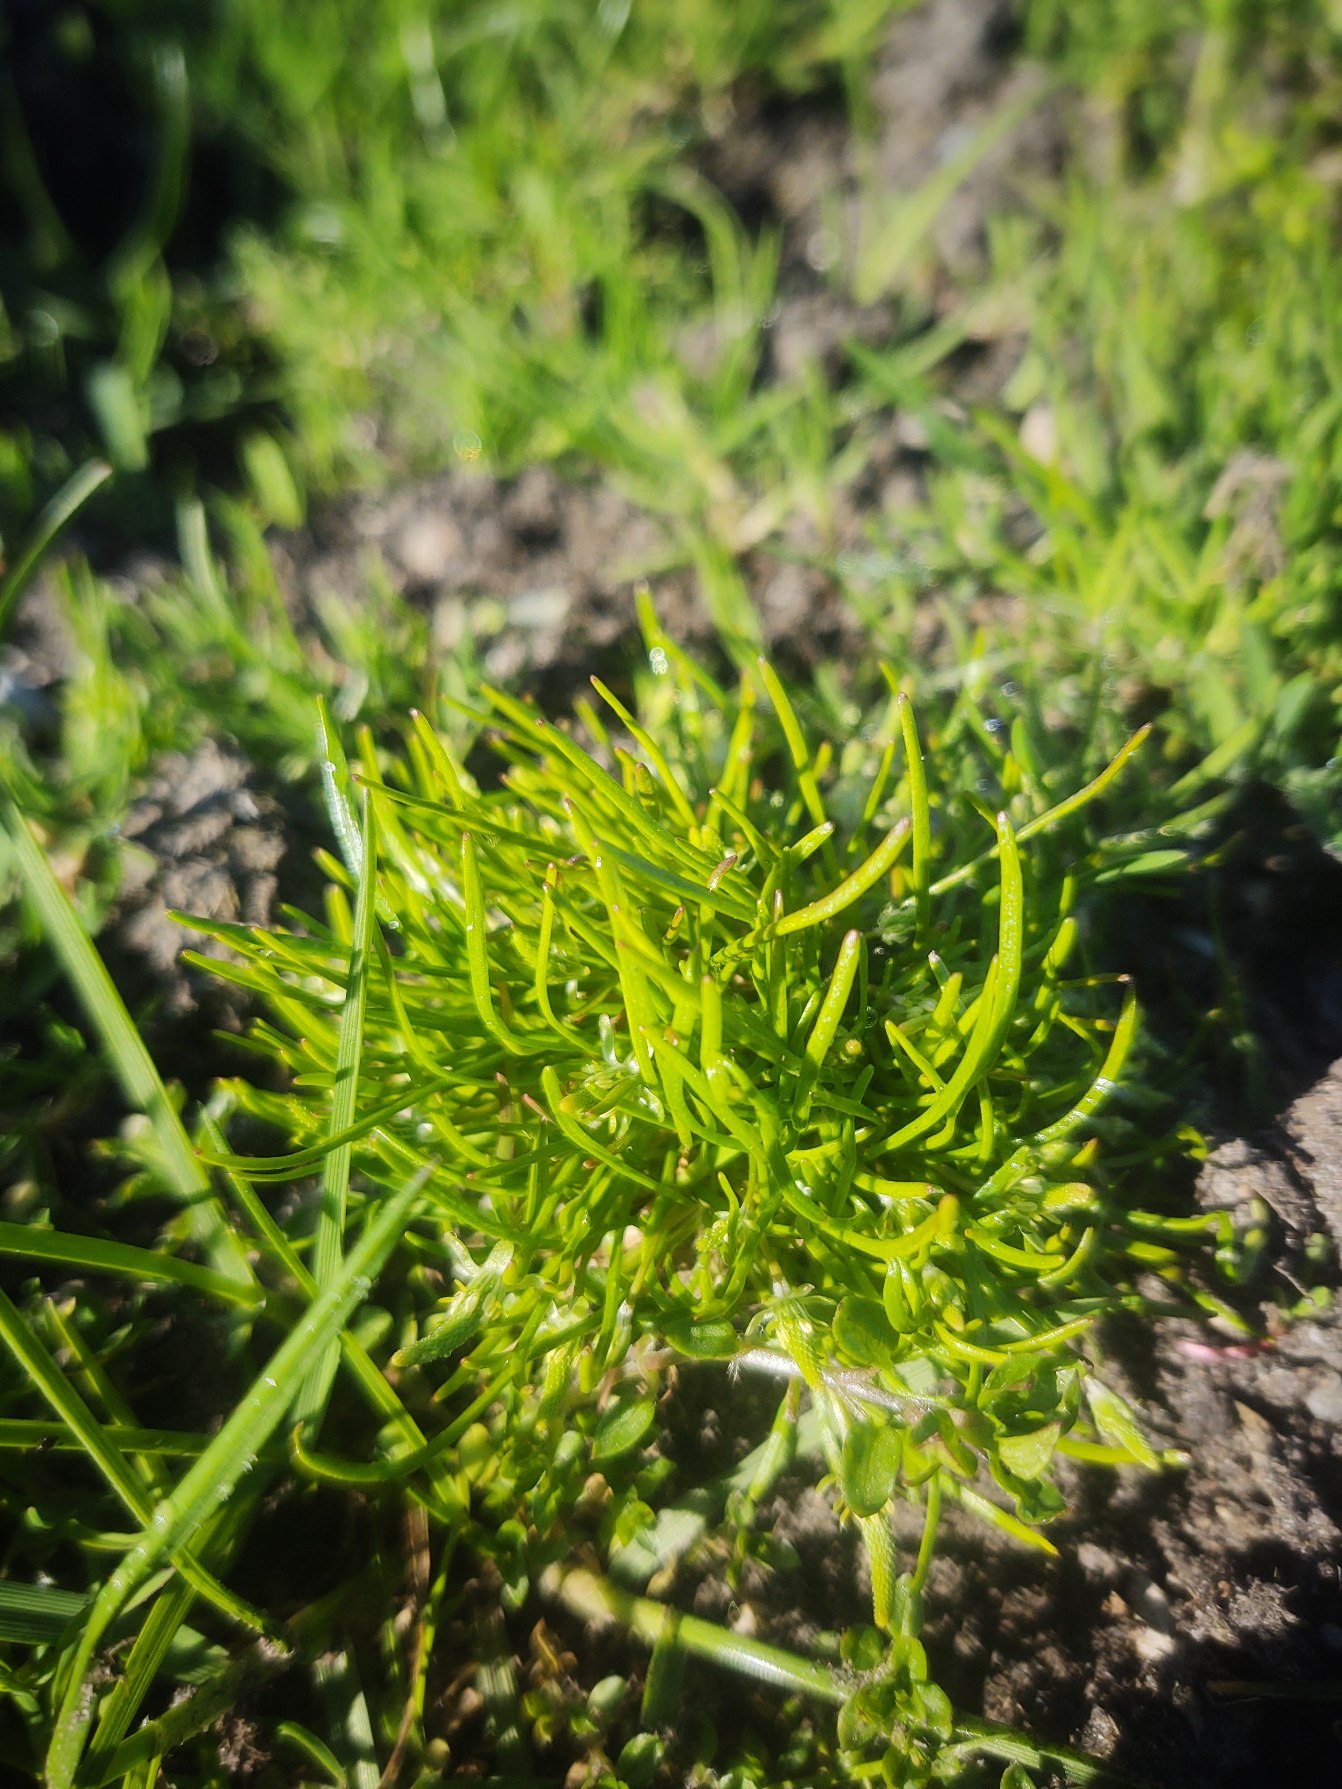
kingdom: Plantae
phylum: Tracheophyta
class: Magnoliopsida
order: Ranunculales
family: Ranunculaceae
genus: Myosurus
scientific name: Myosurus minimus
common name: Musehale
